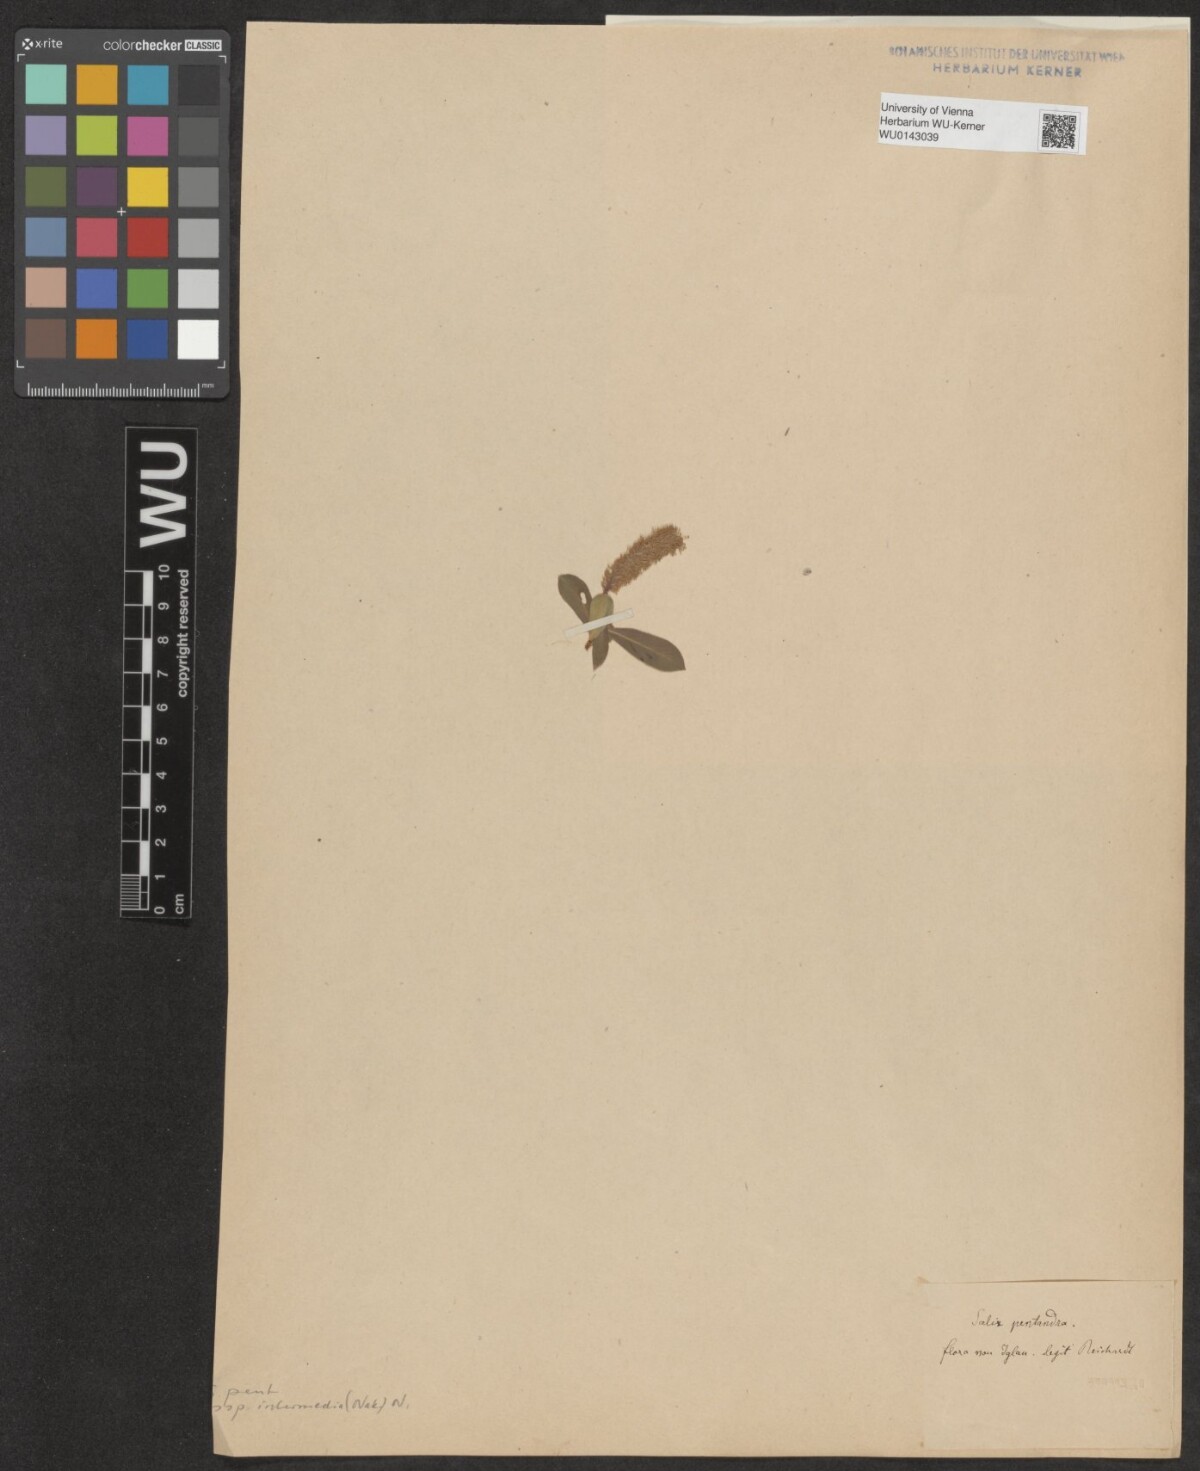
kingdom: Plantae
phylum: Tracheophyta
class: Magnoliopsida
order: Malpighiales
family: Salicaceae
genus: Salix
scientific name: Salix pentandra
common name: Bay willow
